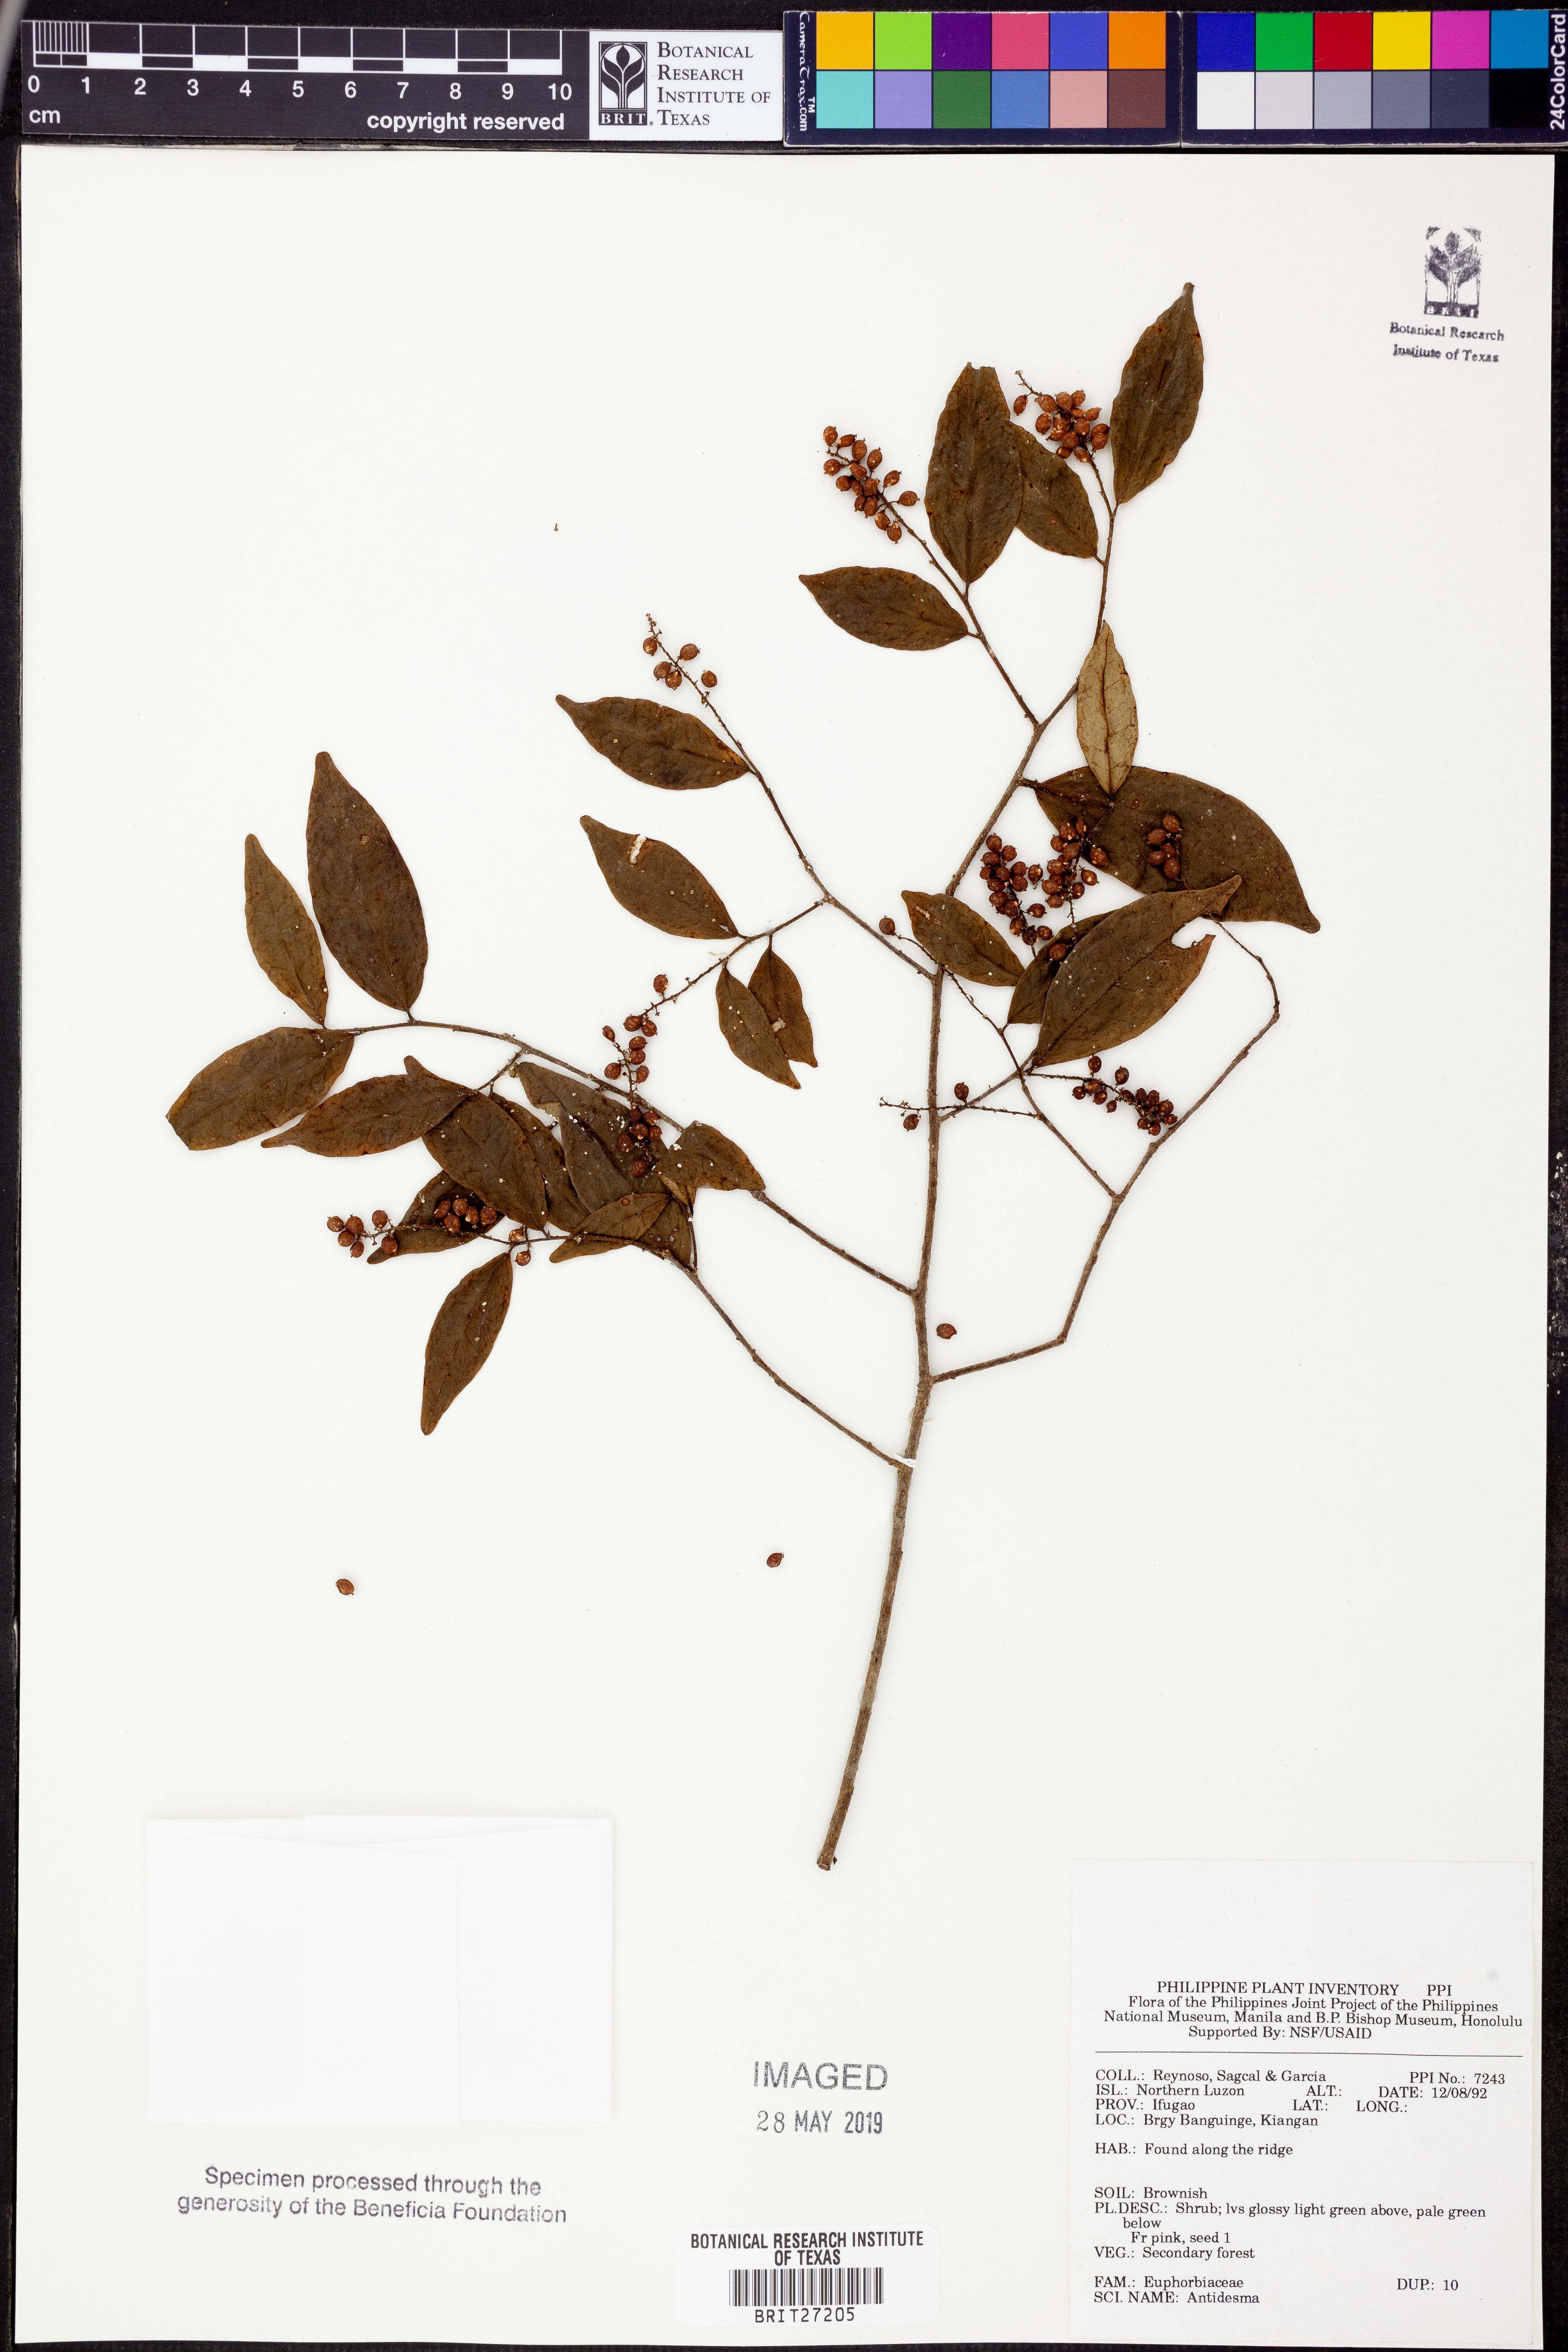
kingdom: Plantae
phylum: Tracheophyta
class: Magnoliopsida
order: Malpighiales
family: Phyllanthaceae
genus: Antidesma
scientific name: Antidesma
